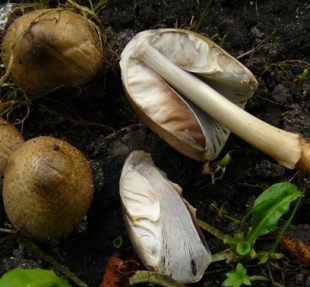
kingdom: Fungi
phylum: Basidiomycota
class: Agaricomycetes
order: Agaricales
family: Psathyrellaceae
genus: Coprinopsis
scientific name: Coprinopsis atramentaria
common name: almindelig blækhat
